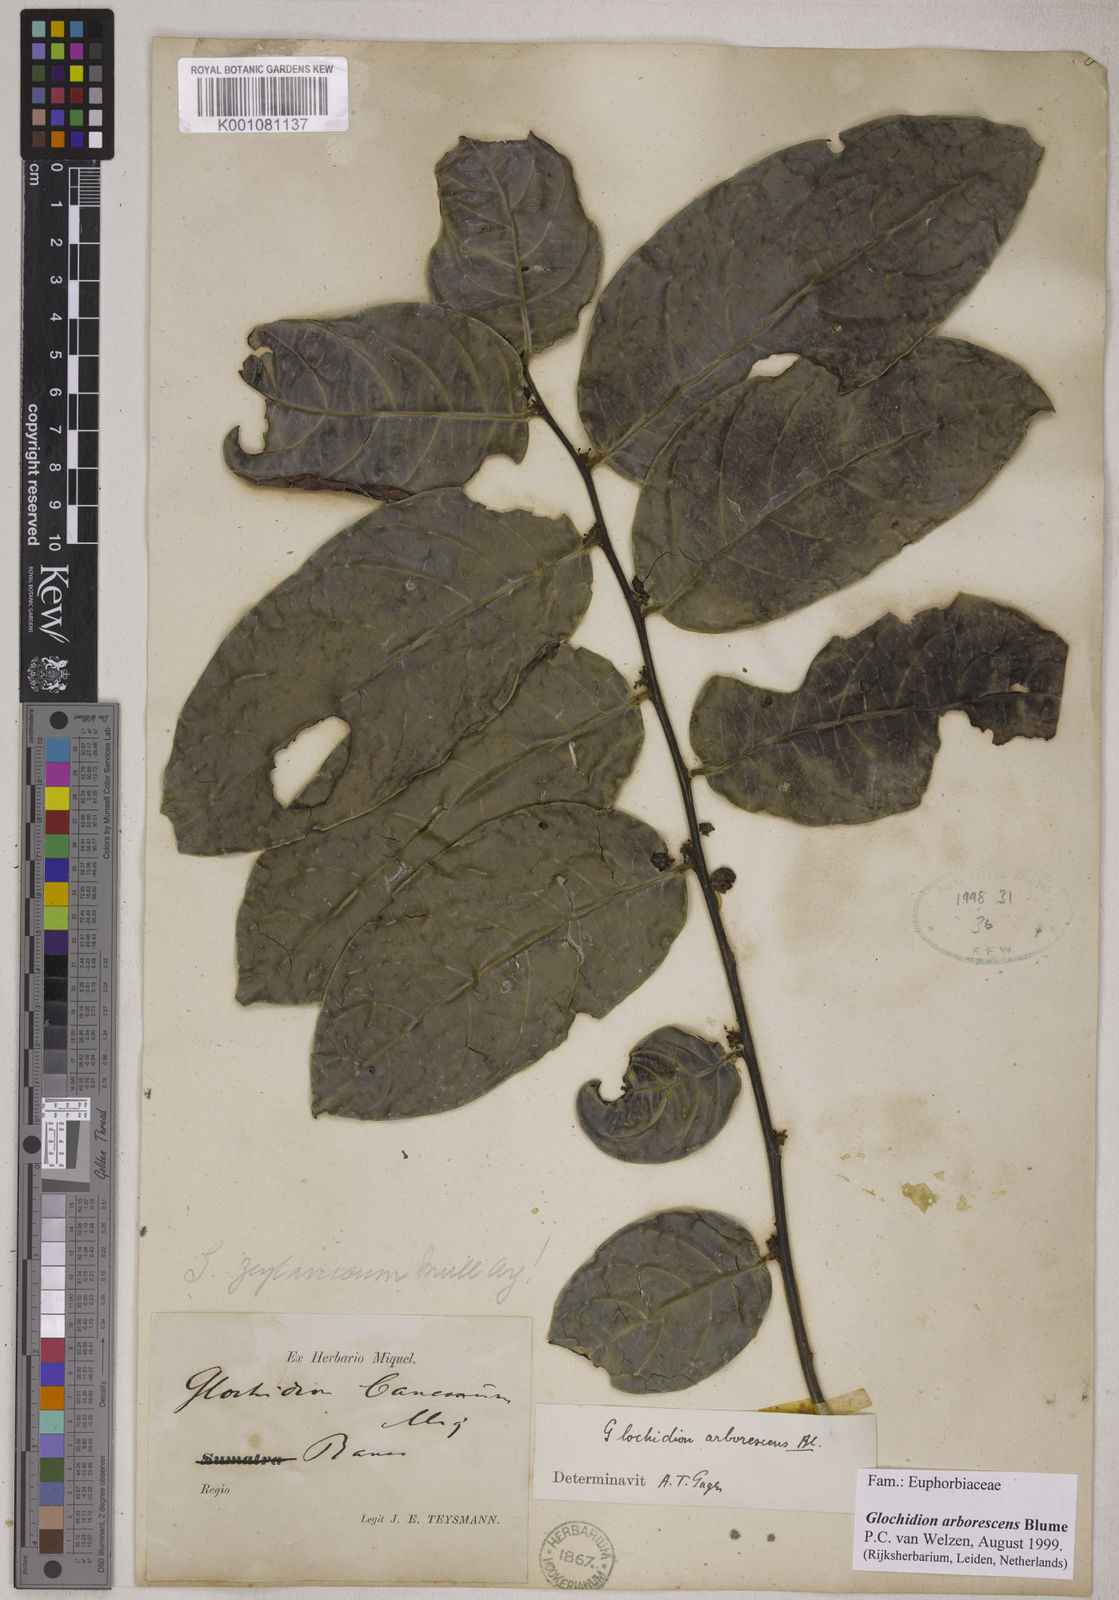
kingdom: Plantae
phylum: Tracheophyta
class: Magnoliopsida
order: Malpighiales
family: Phyllanthaceae
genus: Glochidion
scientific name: Glochidion zeylanicum
